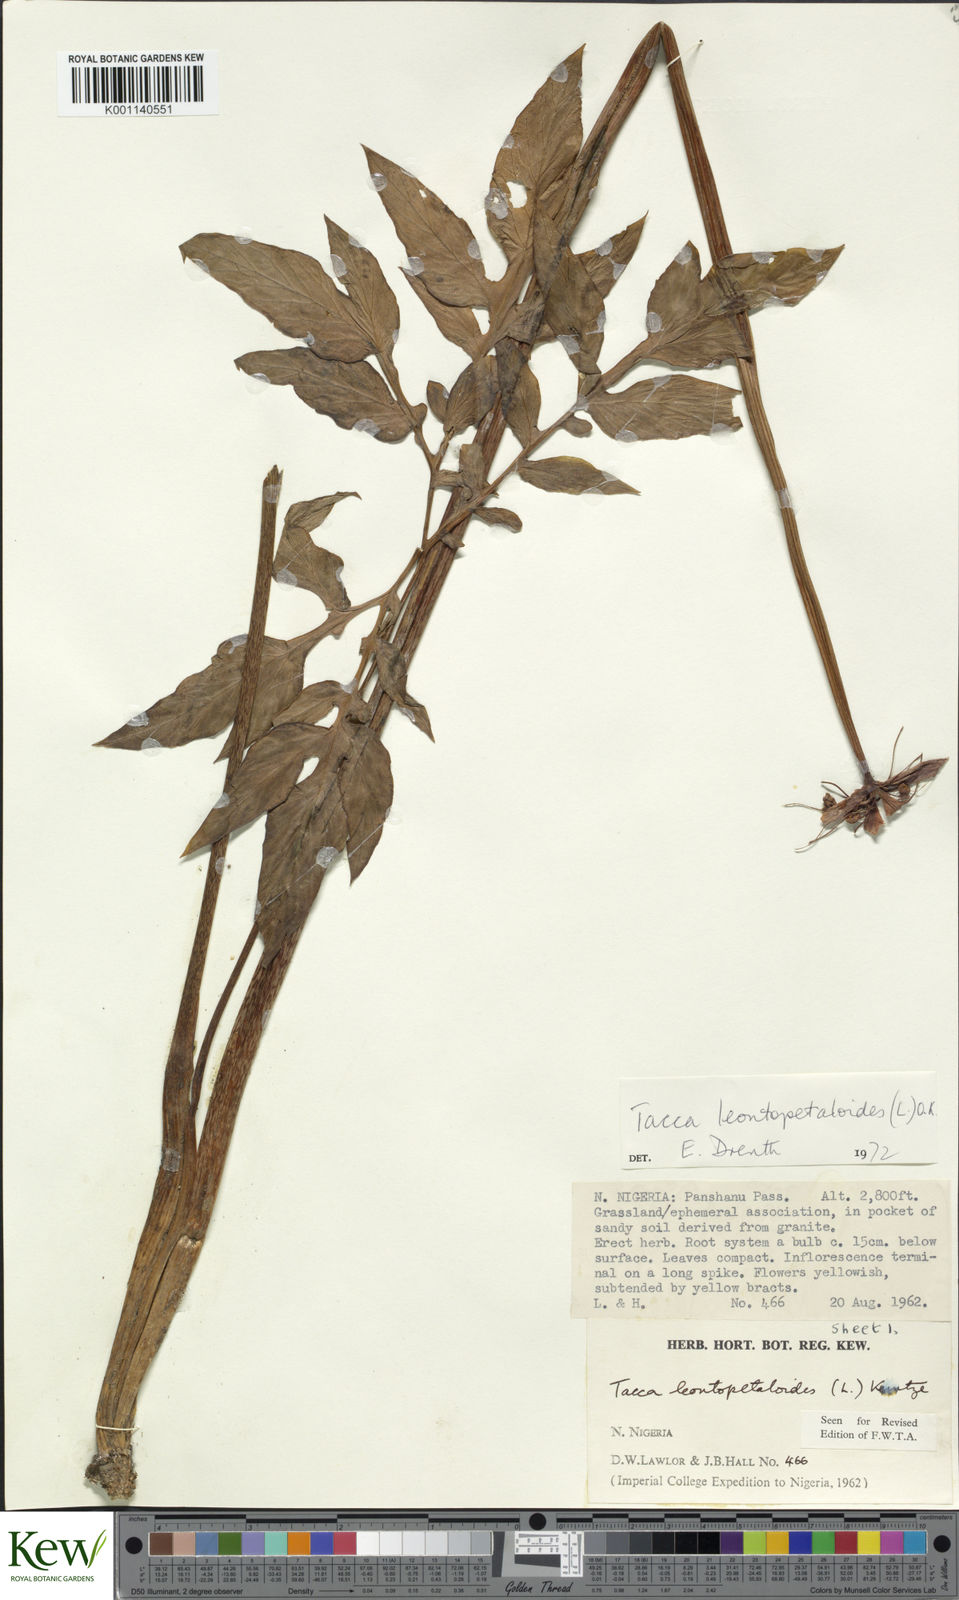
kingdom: Plantae
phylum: Tracheophyta
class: Liliopsida
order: Dioscoreales
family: Dioscoreaceae
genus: Tacca
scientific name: Tacca leontopetaloides
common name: Arrowroot
